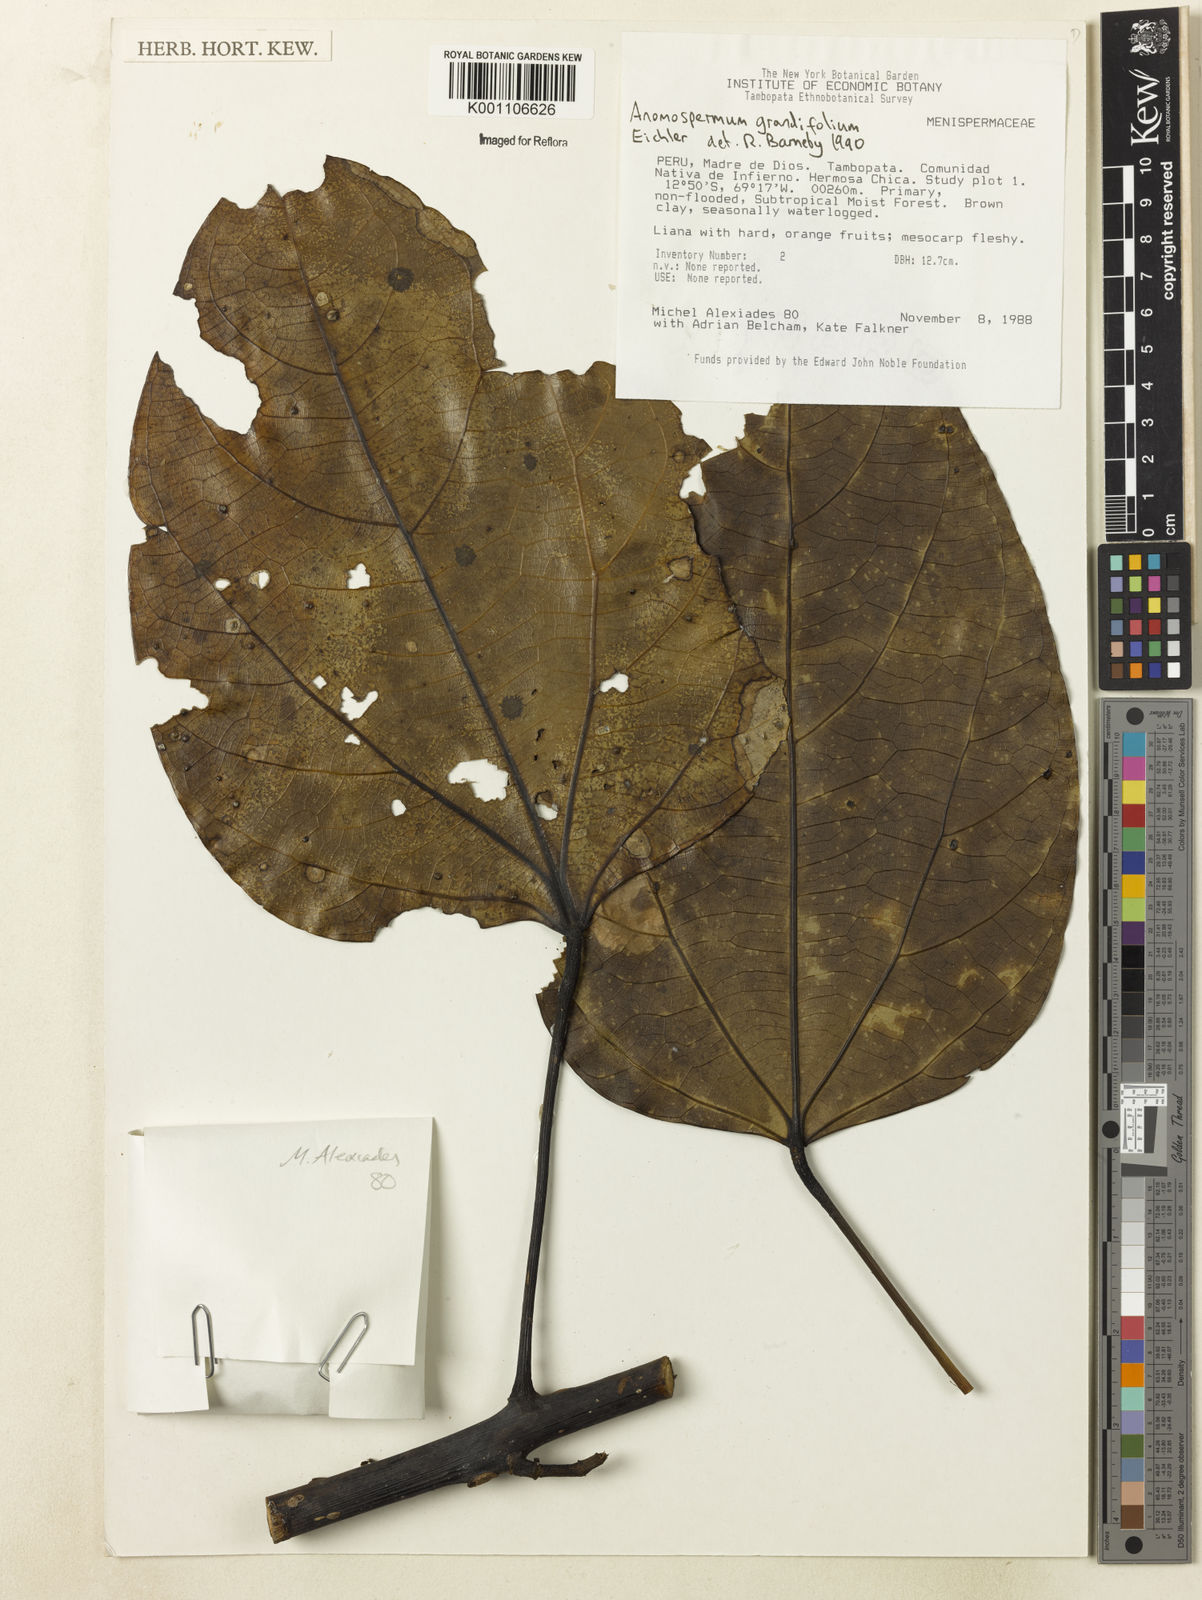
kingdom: Plantae
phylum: Tracheophyta
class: Magnoliopsida
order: Ranunculales
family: Menispermaceae
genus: Elissarrhena
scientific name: Elissarrhena longipes
